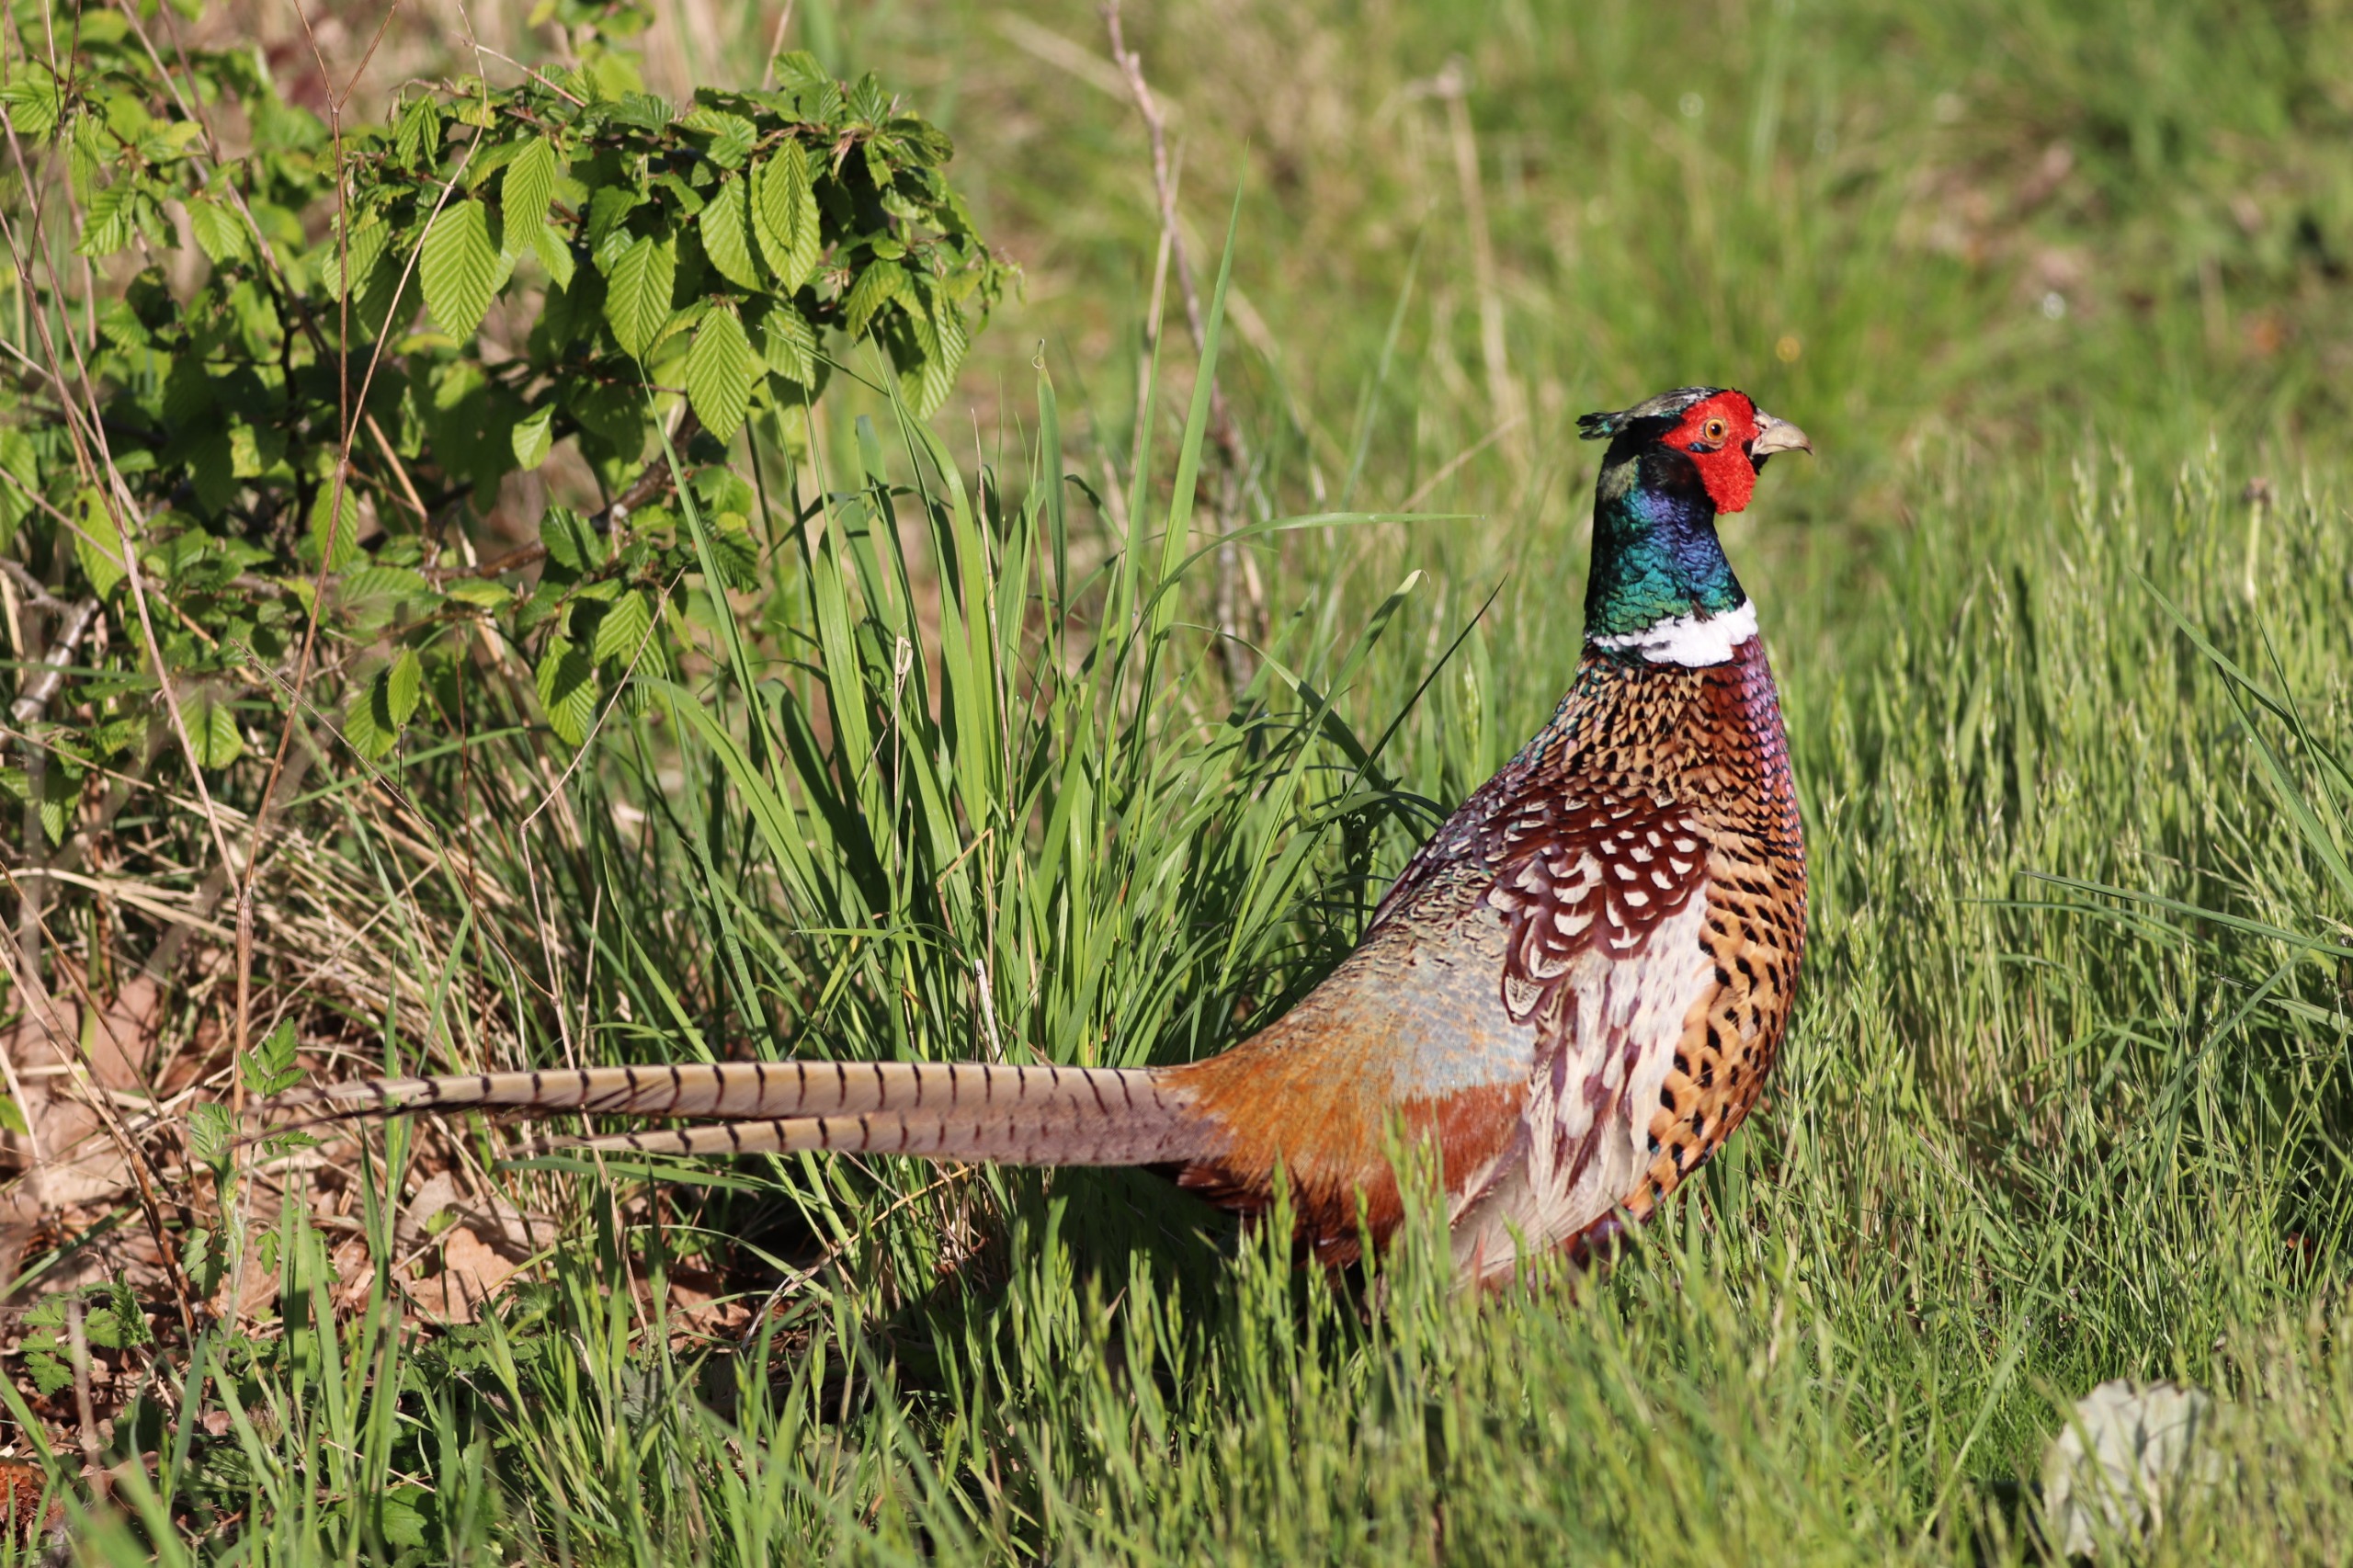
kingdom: Animalia
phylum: Chordata
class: Aves
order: Galliformes
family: Phasianidae
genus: Phasianus
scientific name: Phasianus colchicus
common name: Fasan
